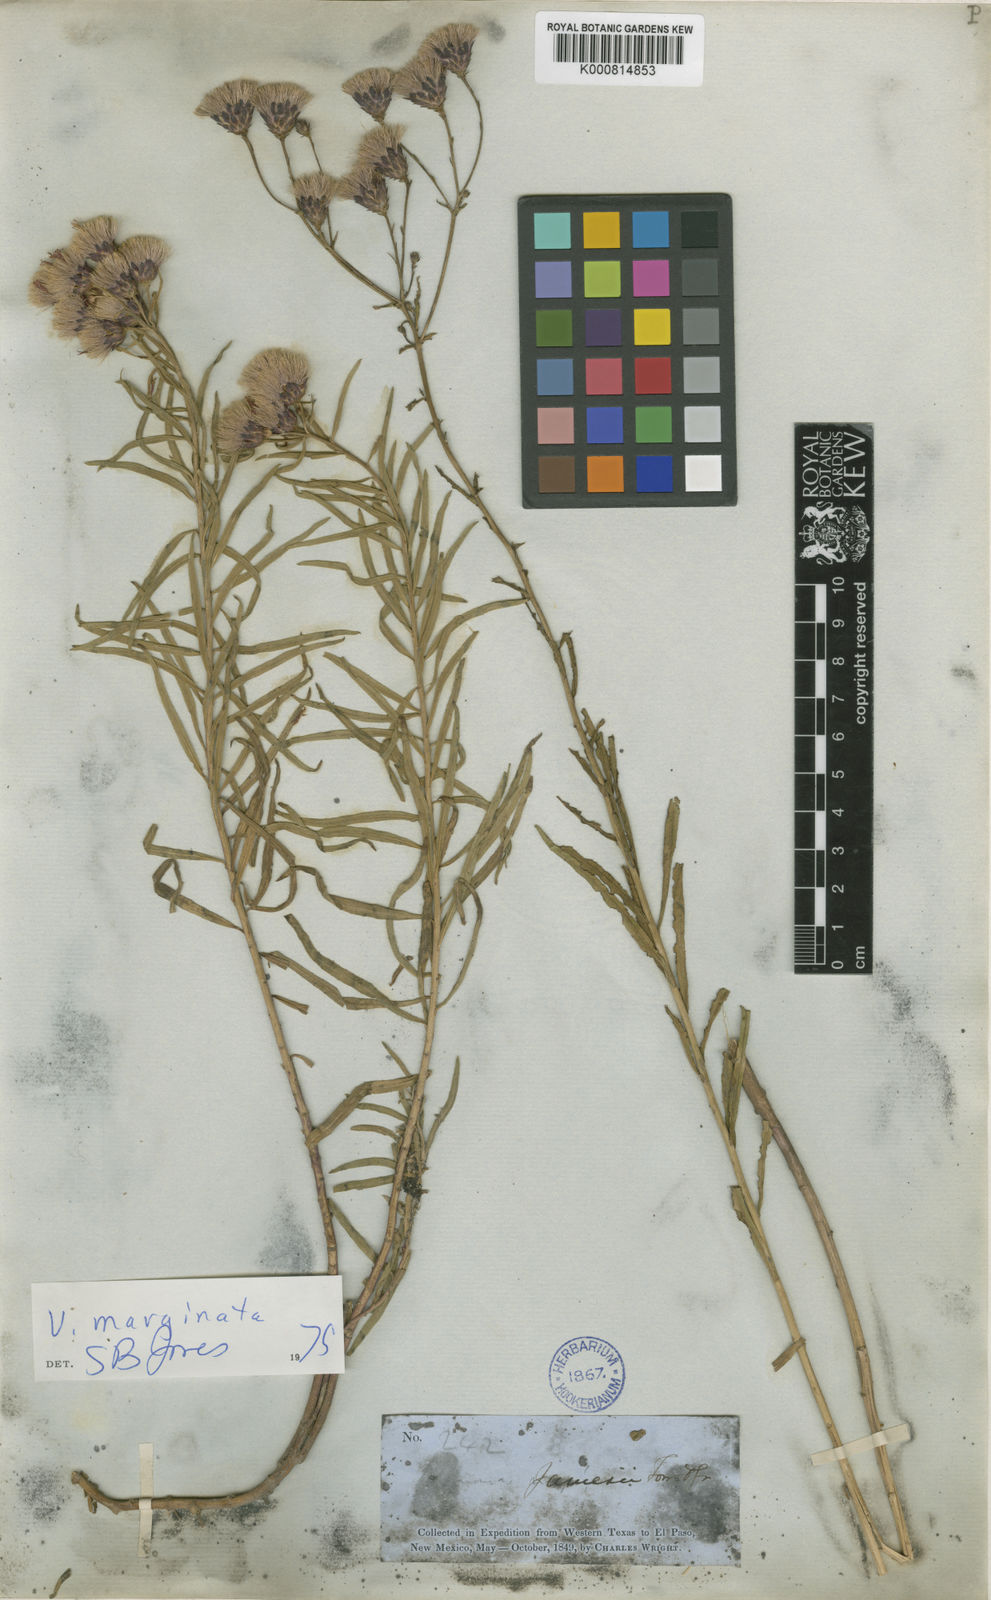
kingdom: Plantae
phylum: Tracheophyta
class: Magnoliopsida
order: Asterales
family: Asteraceae
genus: Vernonia
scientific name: Vernonia marginata
